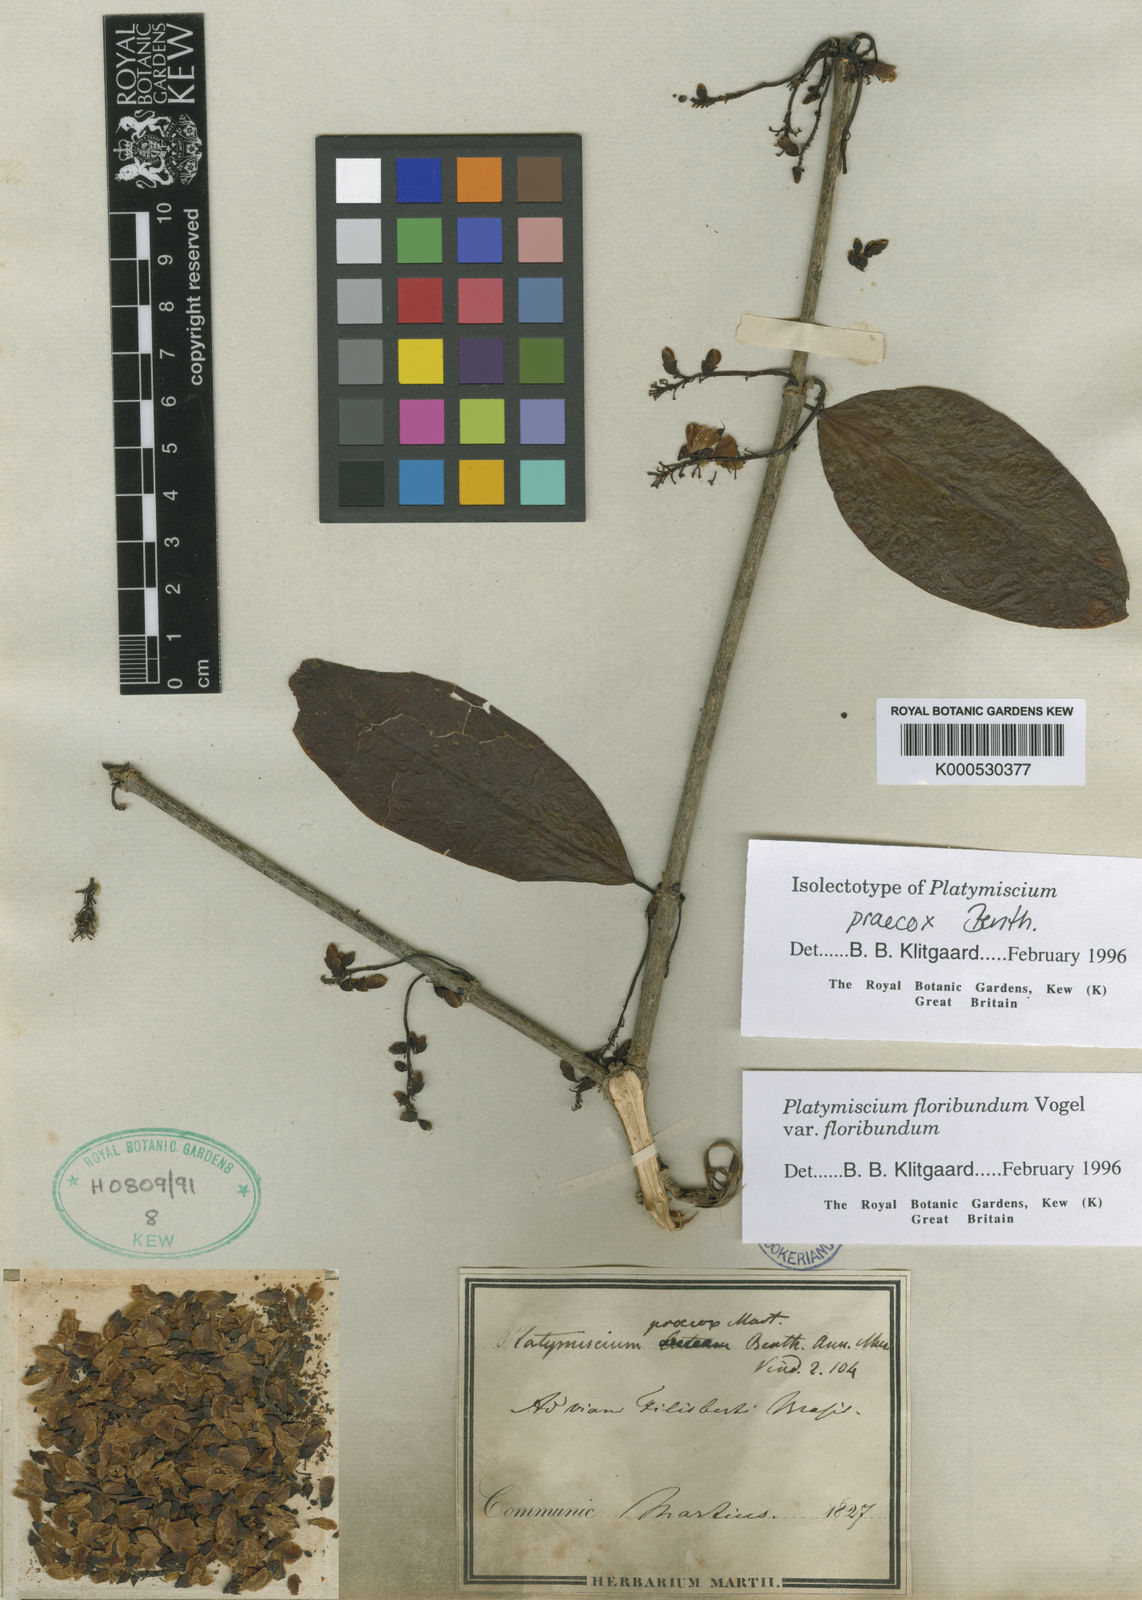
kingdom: Plantae
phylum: Tracheophyta
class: Magnoliopsida
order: Fabales
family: Fabaceae
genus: Platymiscium
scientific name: Platymiscium floribundum
